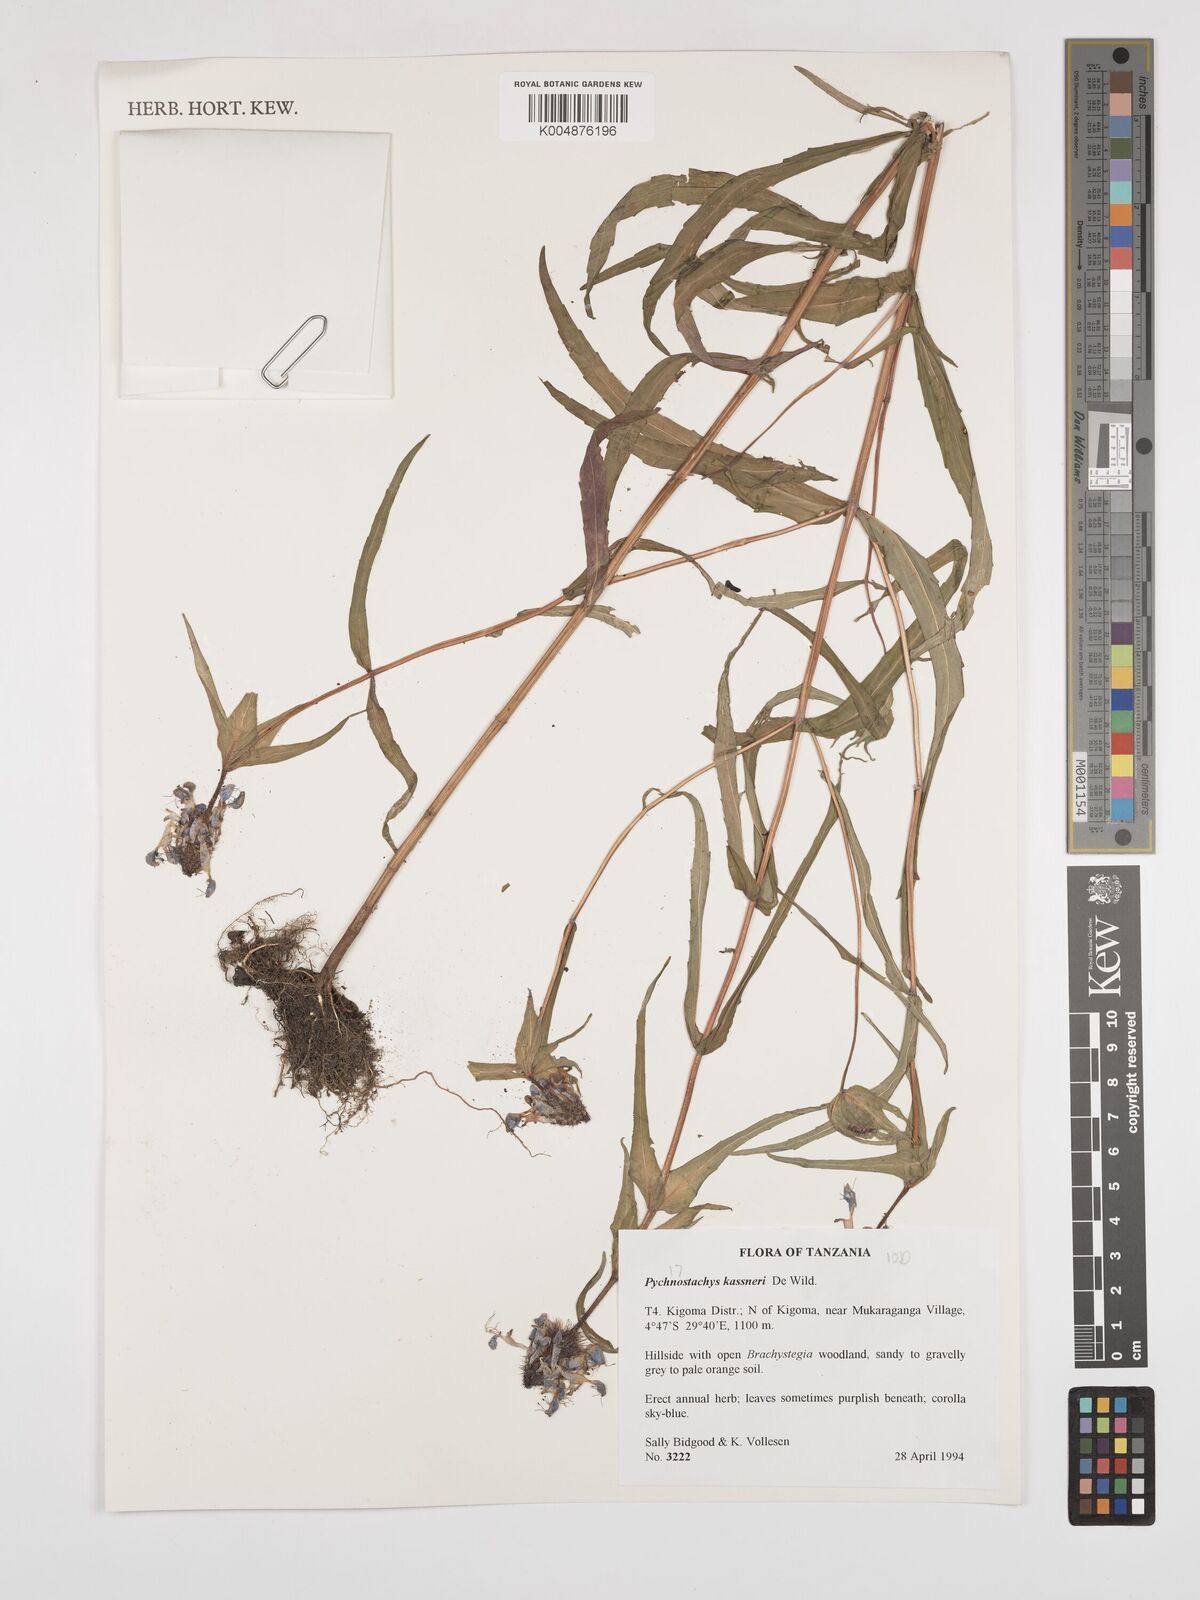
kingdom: Plantae
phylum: Tracheophyta
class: Magnoliopsida
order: Lamiales
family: Lamiaceae
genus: Coleus
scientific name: Coleus scruposus
